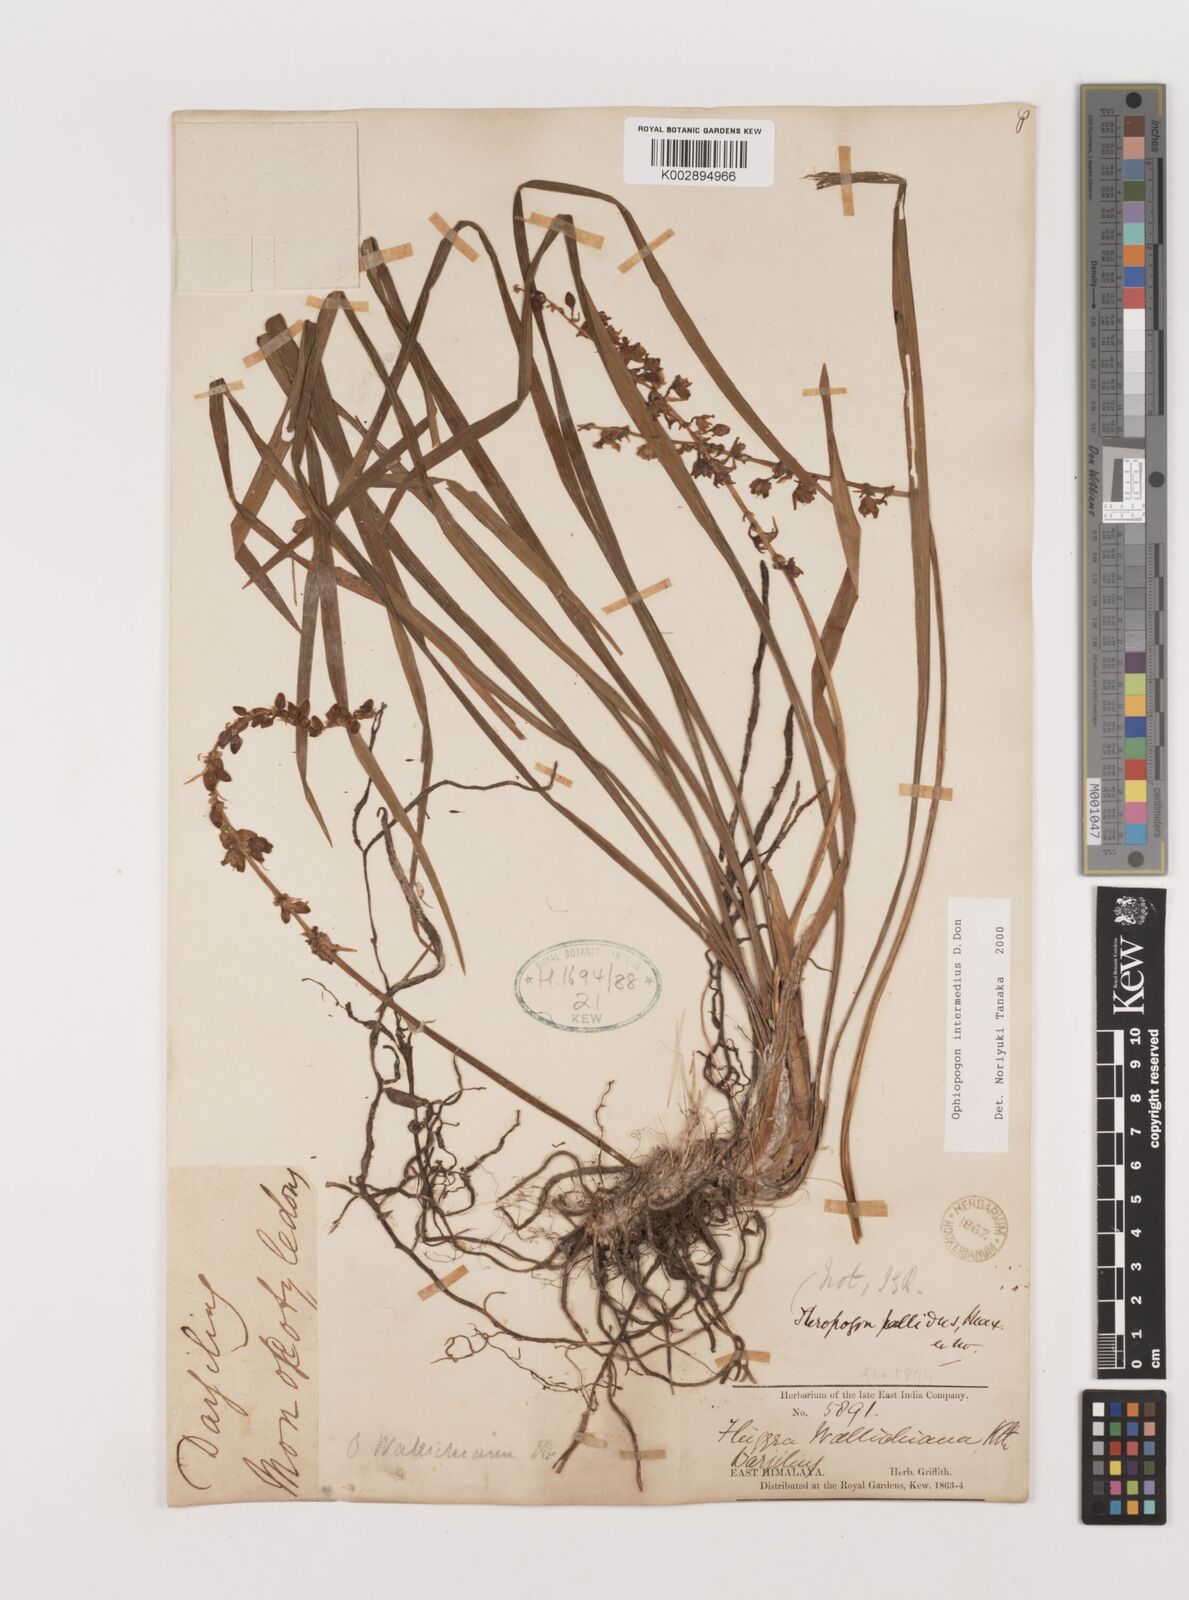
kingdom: Plantae
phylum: Tracheophyta
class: Liliopsida
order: Asparagales
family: Asparagaceae
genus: Ophiopogon
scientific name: Ophiopogon intermedius
